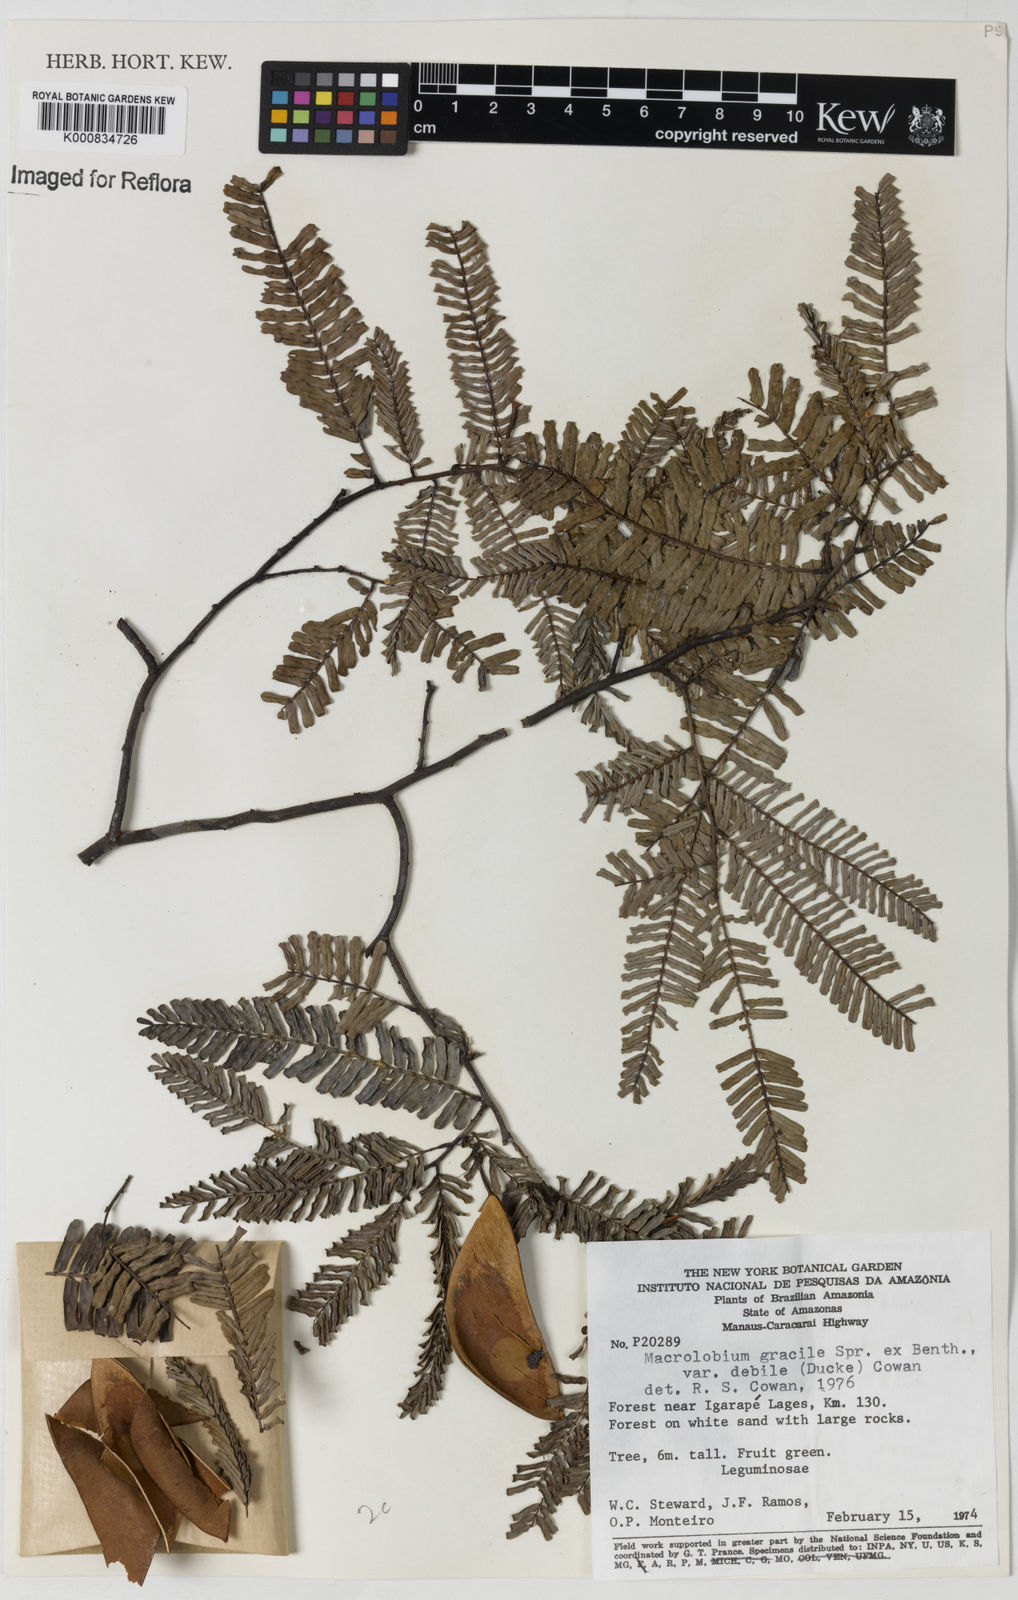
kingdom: Plantae
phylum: Tracheophyta
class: Magnoliopsida
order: Fabales
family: Fabaceae
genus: Macrolobium
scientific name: Macrolobium gracile
